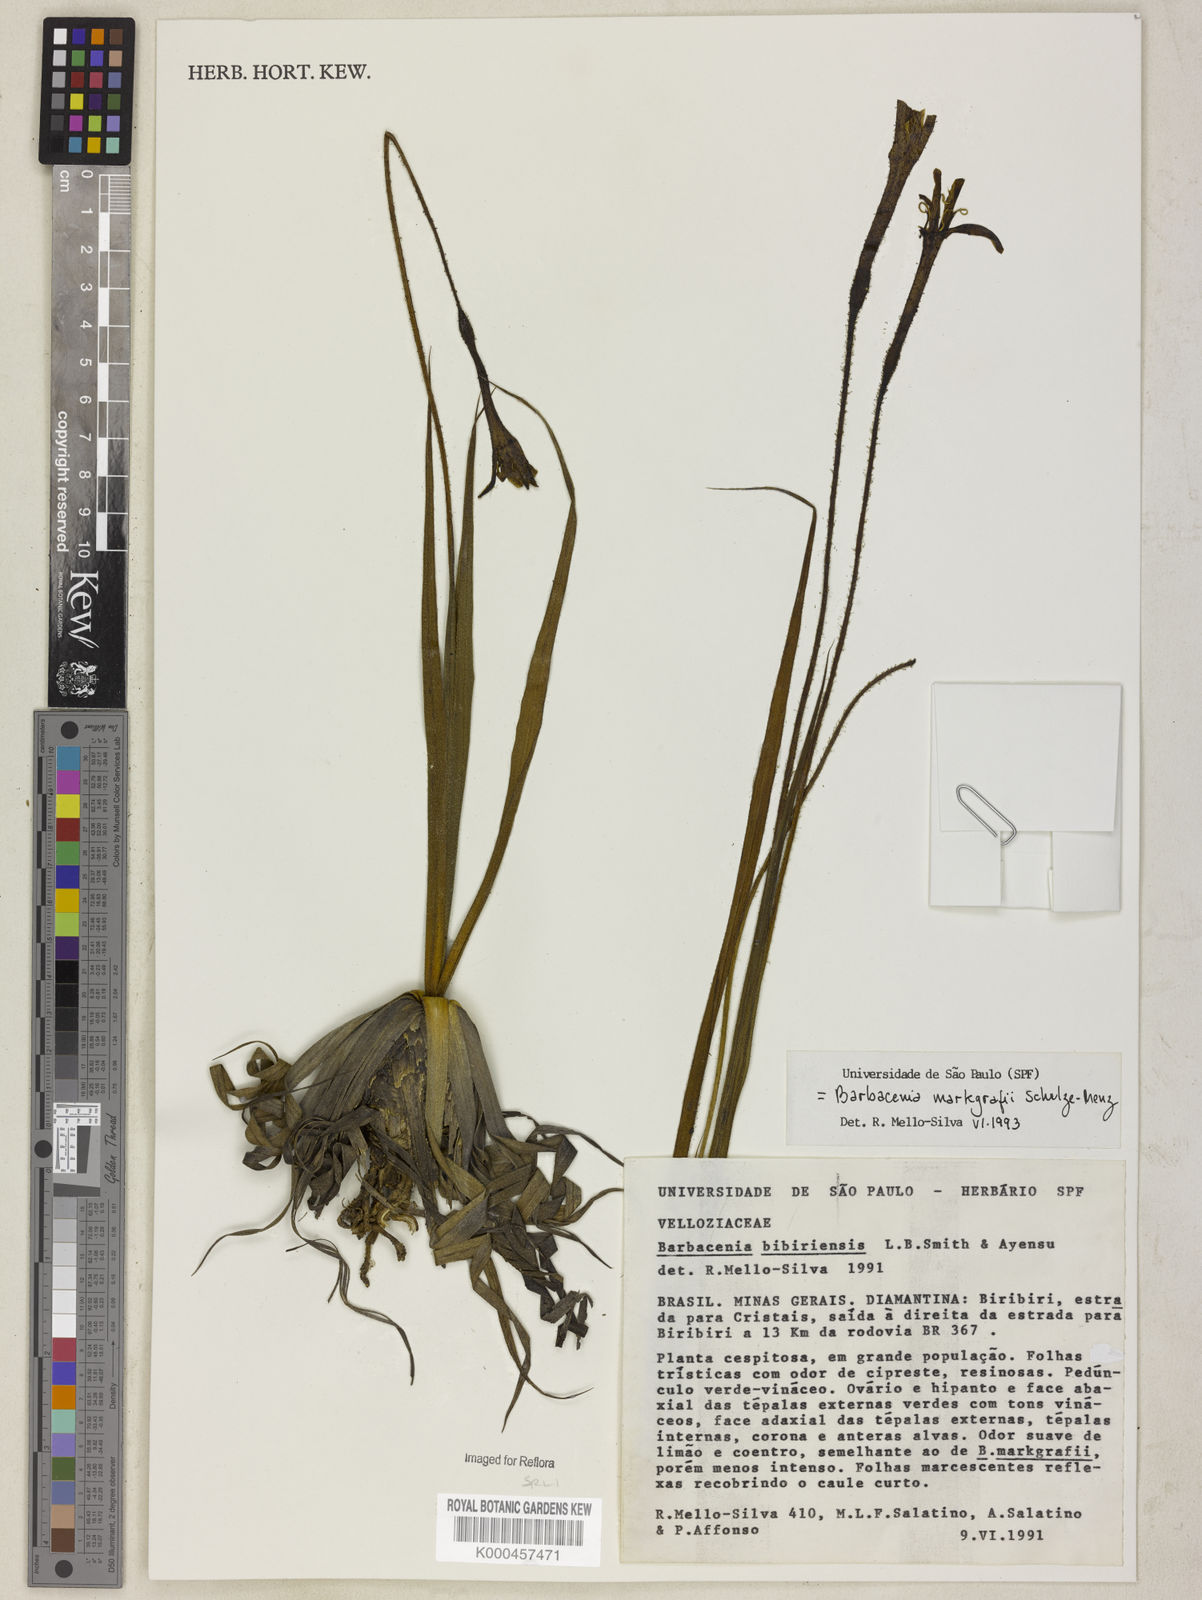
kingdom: Plantae
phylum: Tracheophyta
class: Liliopsida
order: Pandanales
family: Velloziaceae
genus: Barbacenia
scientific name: Barbacenia markgrafii
